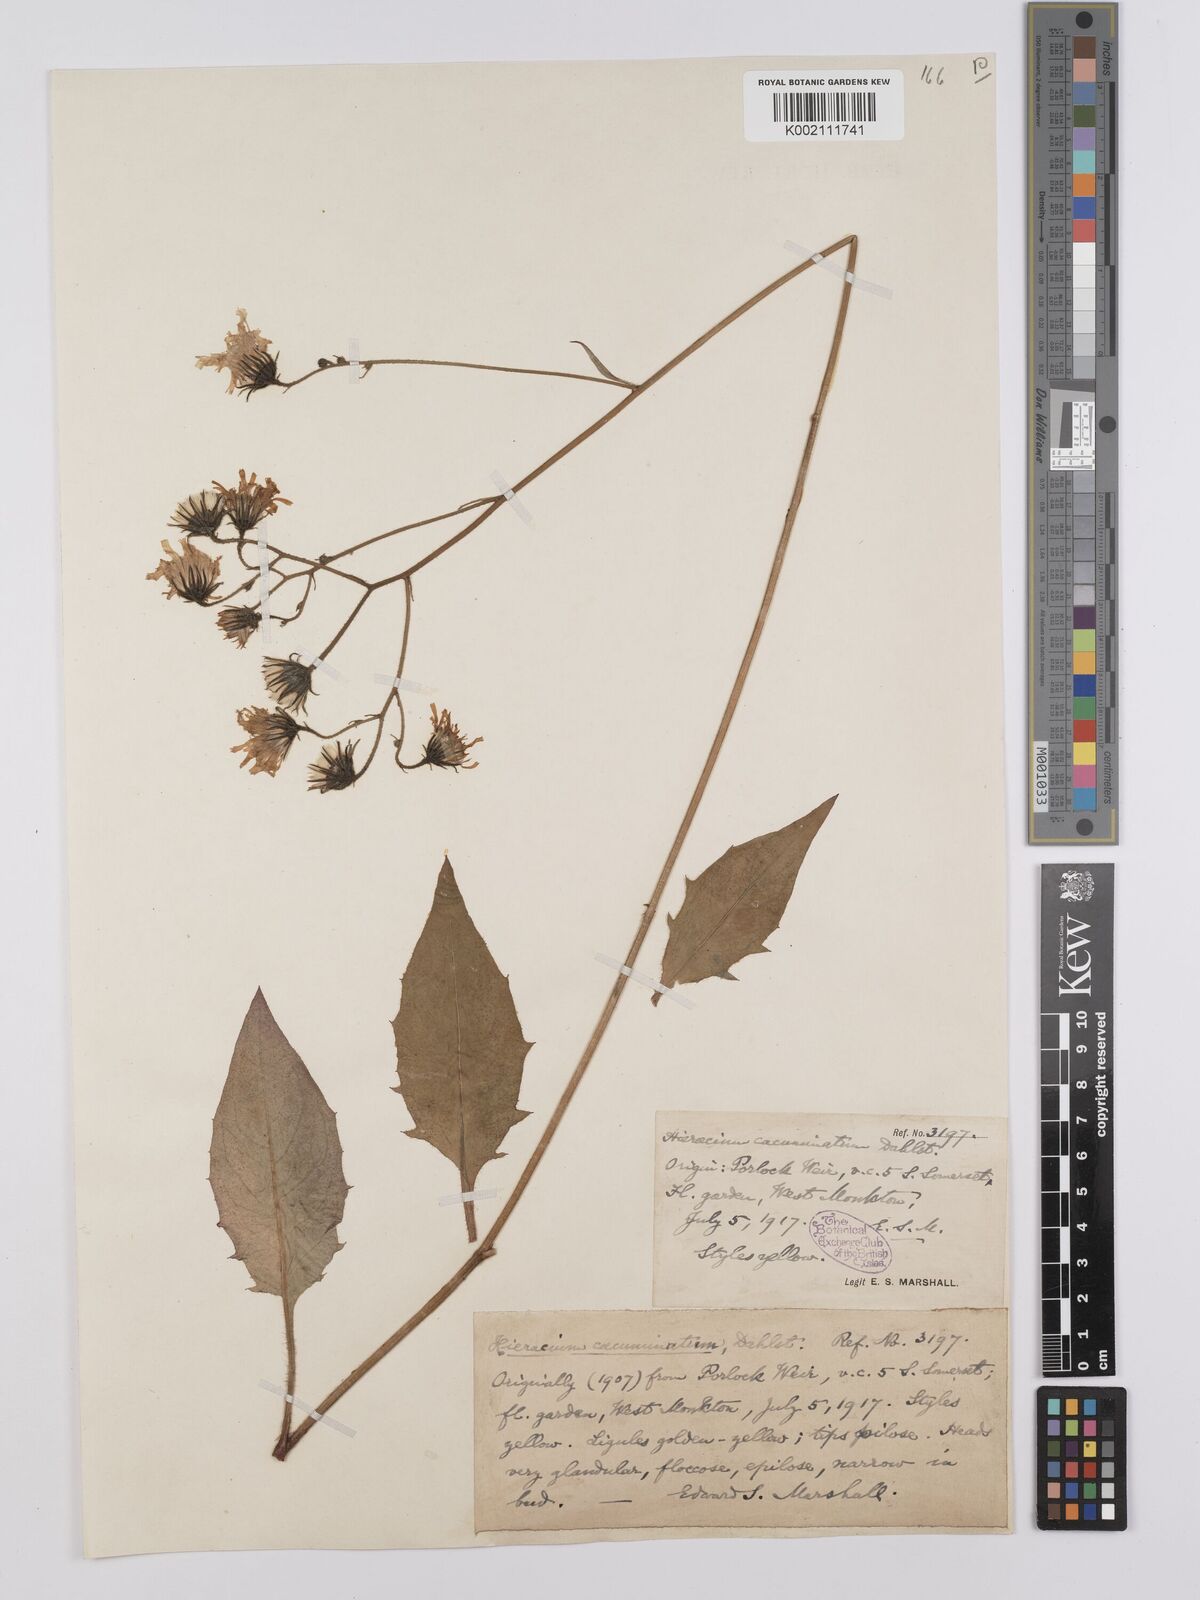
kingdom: Plantae
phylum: Tracheophyta
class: Magnoliopsida
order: Asterales
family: Asteraceae
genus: Hieracium
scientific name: Hieracium
